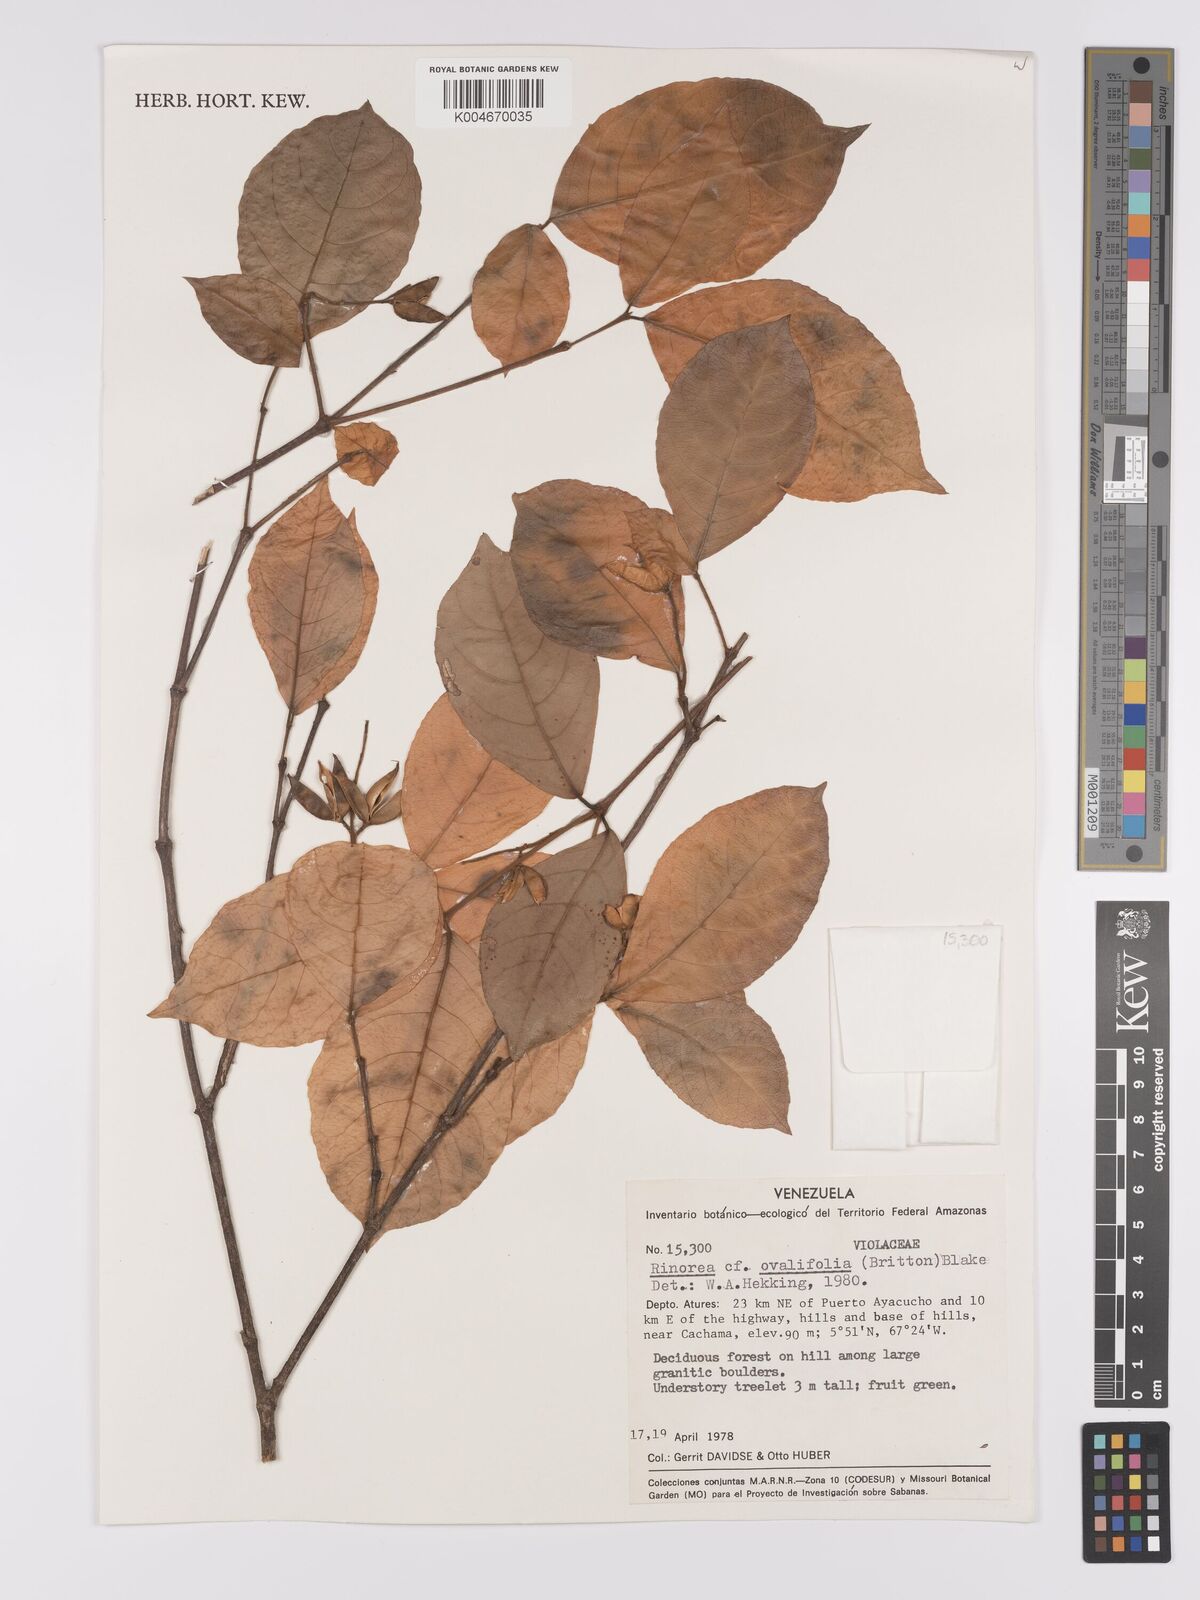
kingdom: Plantae
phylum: Tracheophyta
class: Magnoliopsida
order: Malpighiales
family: Violaceae
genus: Rinorea
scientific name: Rinorea ovalifolia
